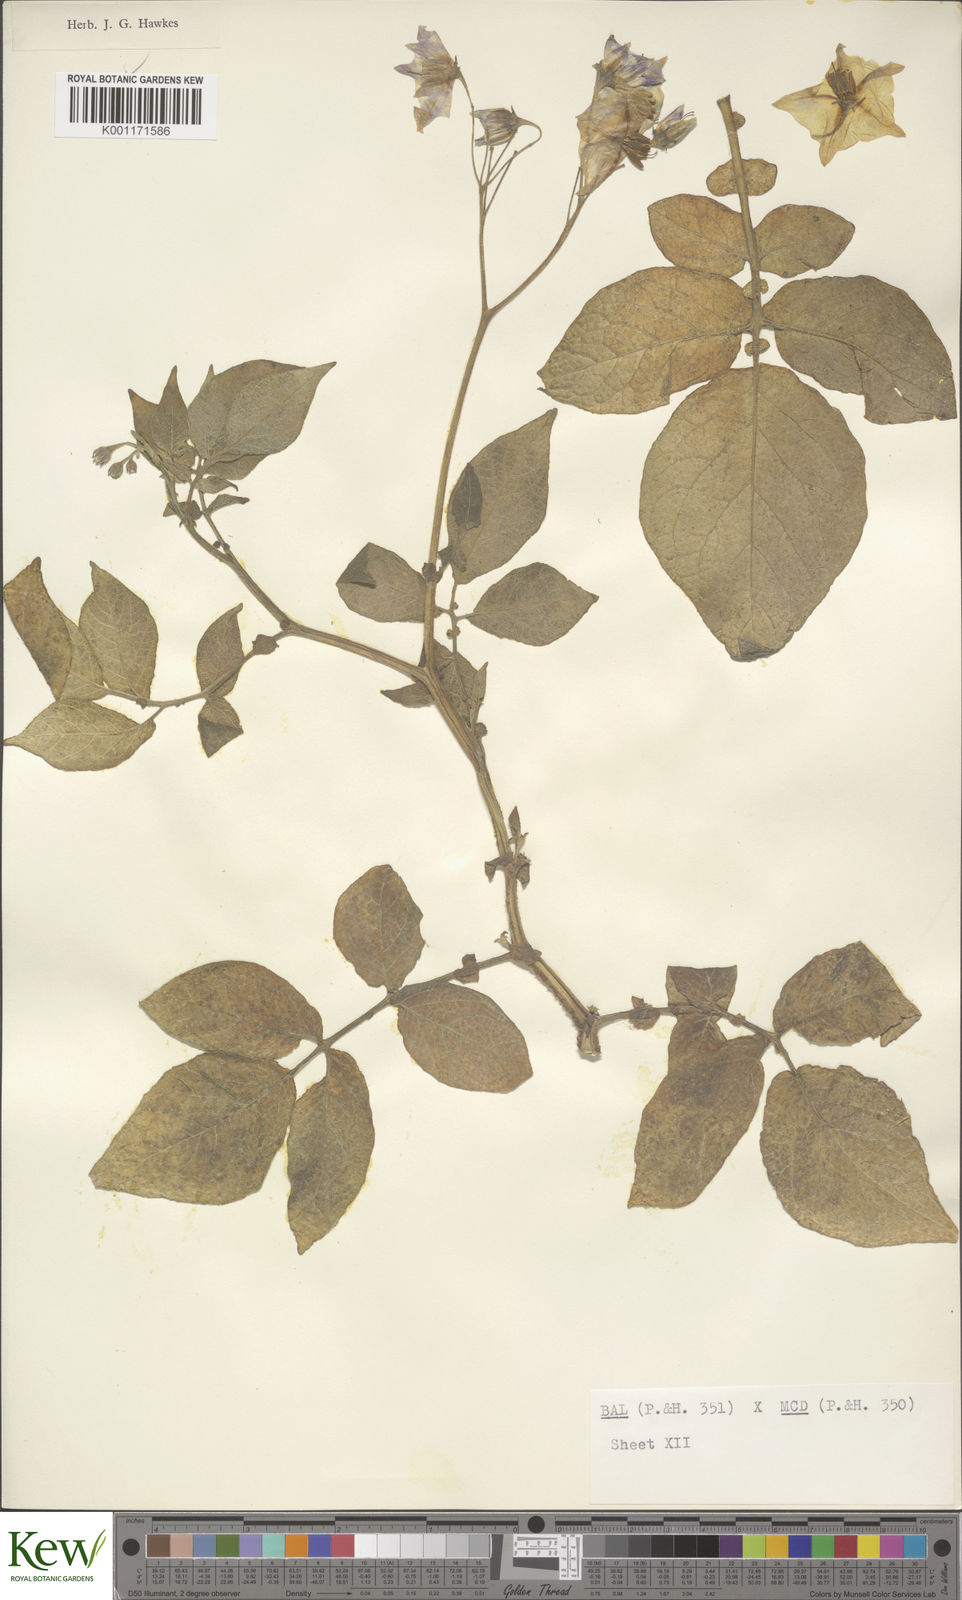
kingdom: Plantae
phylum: Tracheophyta
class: Magnoliopsida
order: Solanales
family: Solanaceae
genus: Solanum
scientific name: Solanum vernei
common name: Purple potato
